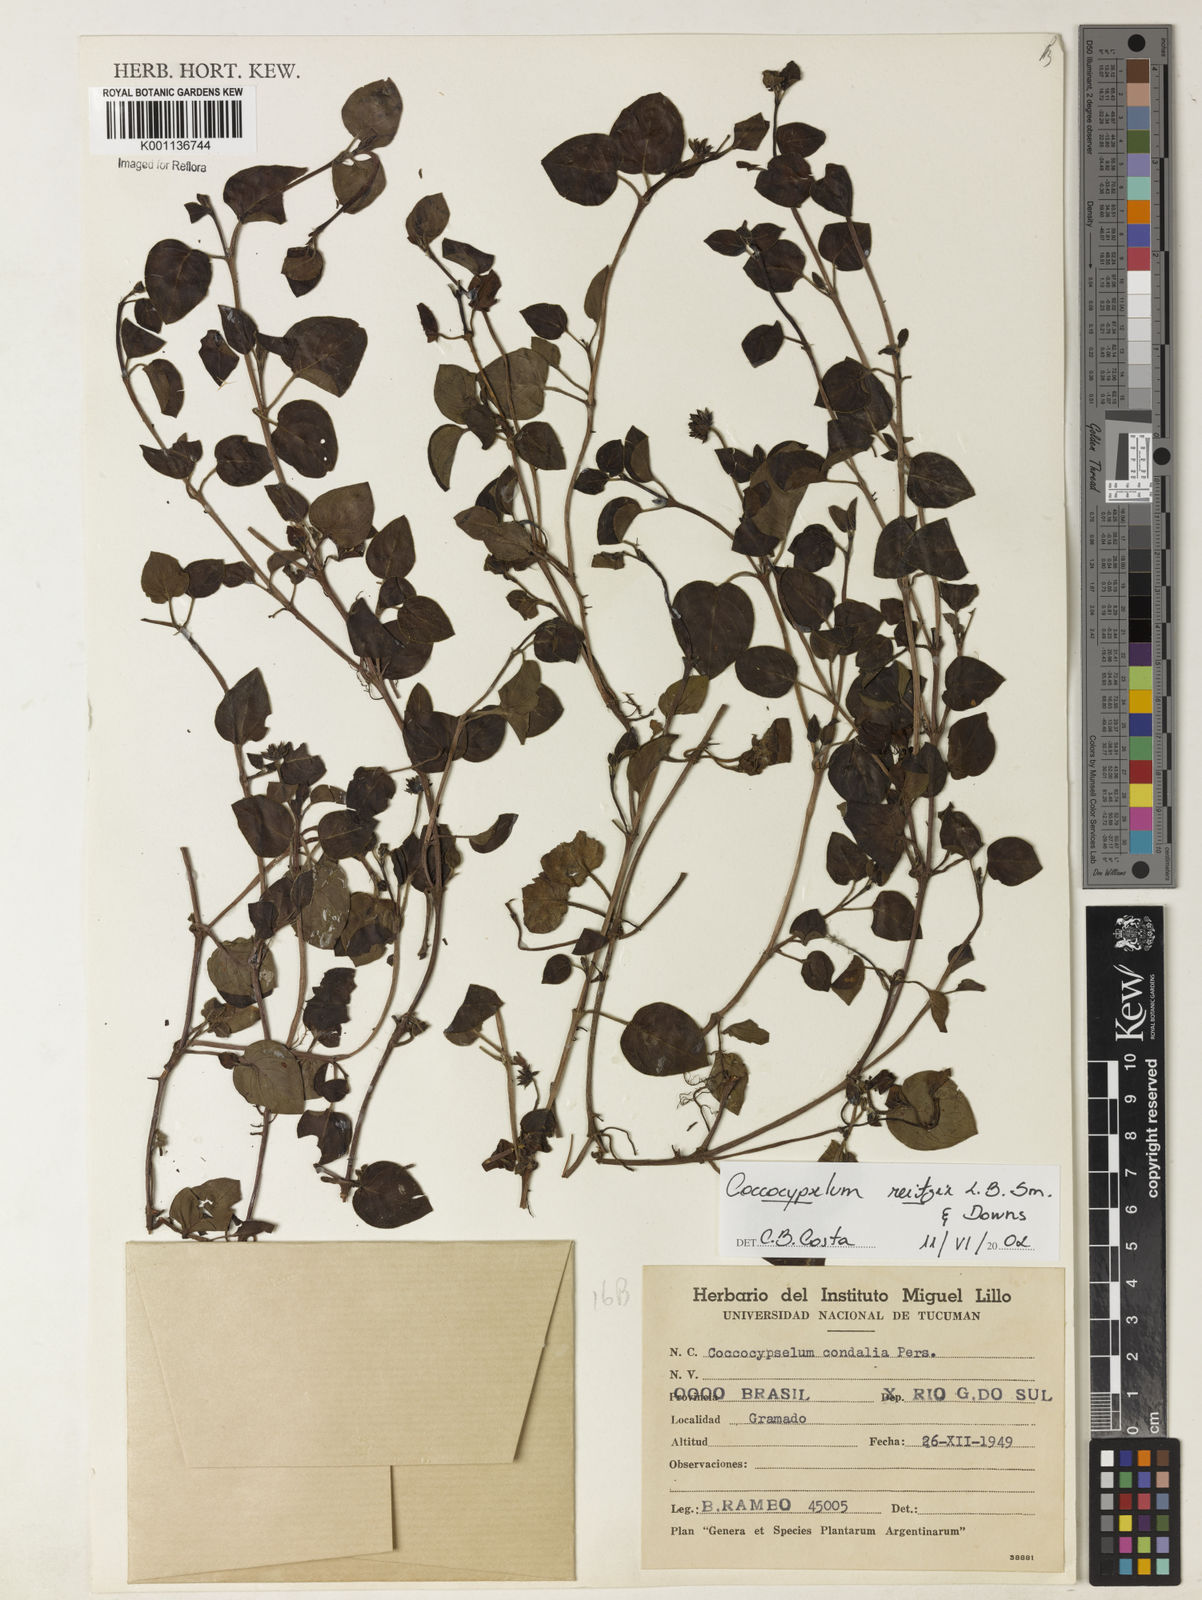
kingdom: Plantae
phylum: Tracheophyta
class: Magnoliopsida
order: Gentianales
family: Rubiaceae
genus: Coccocypselum
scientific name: Coccocypselum pulchellum
